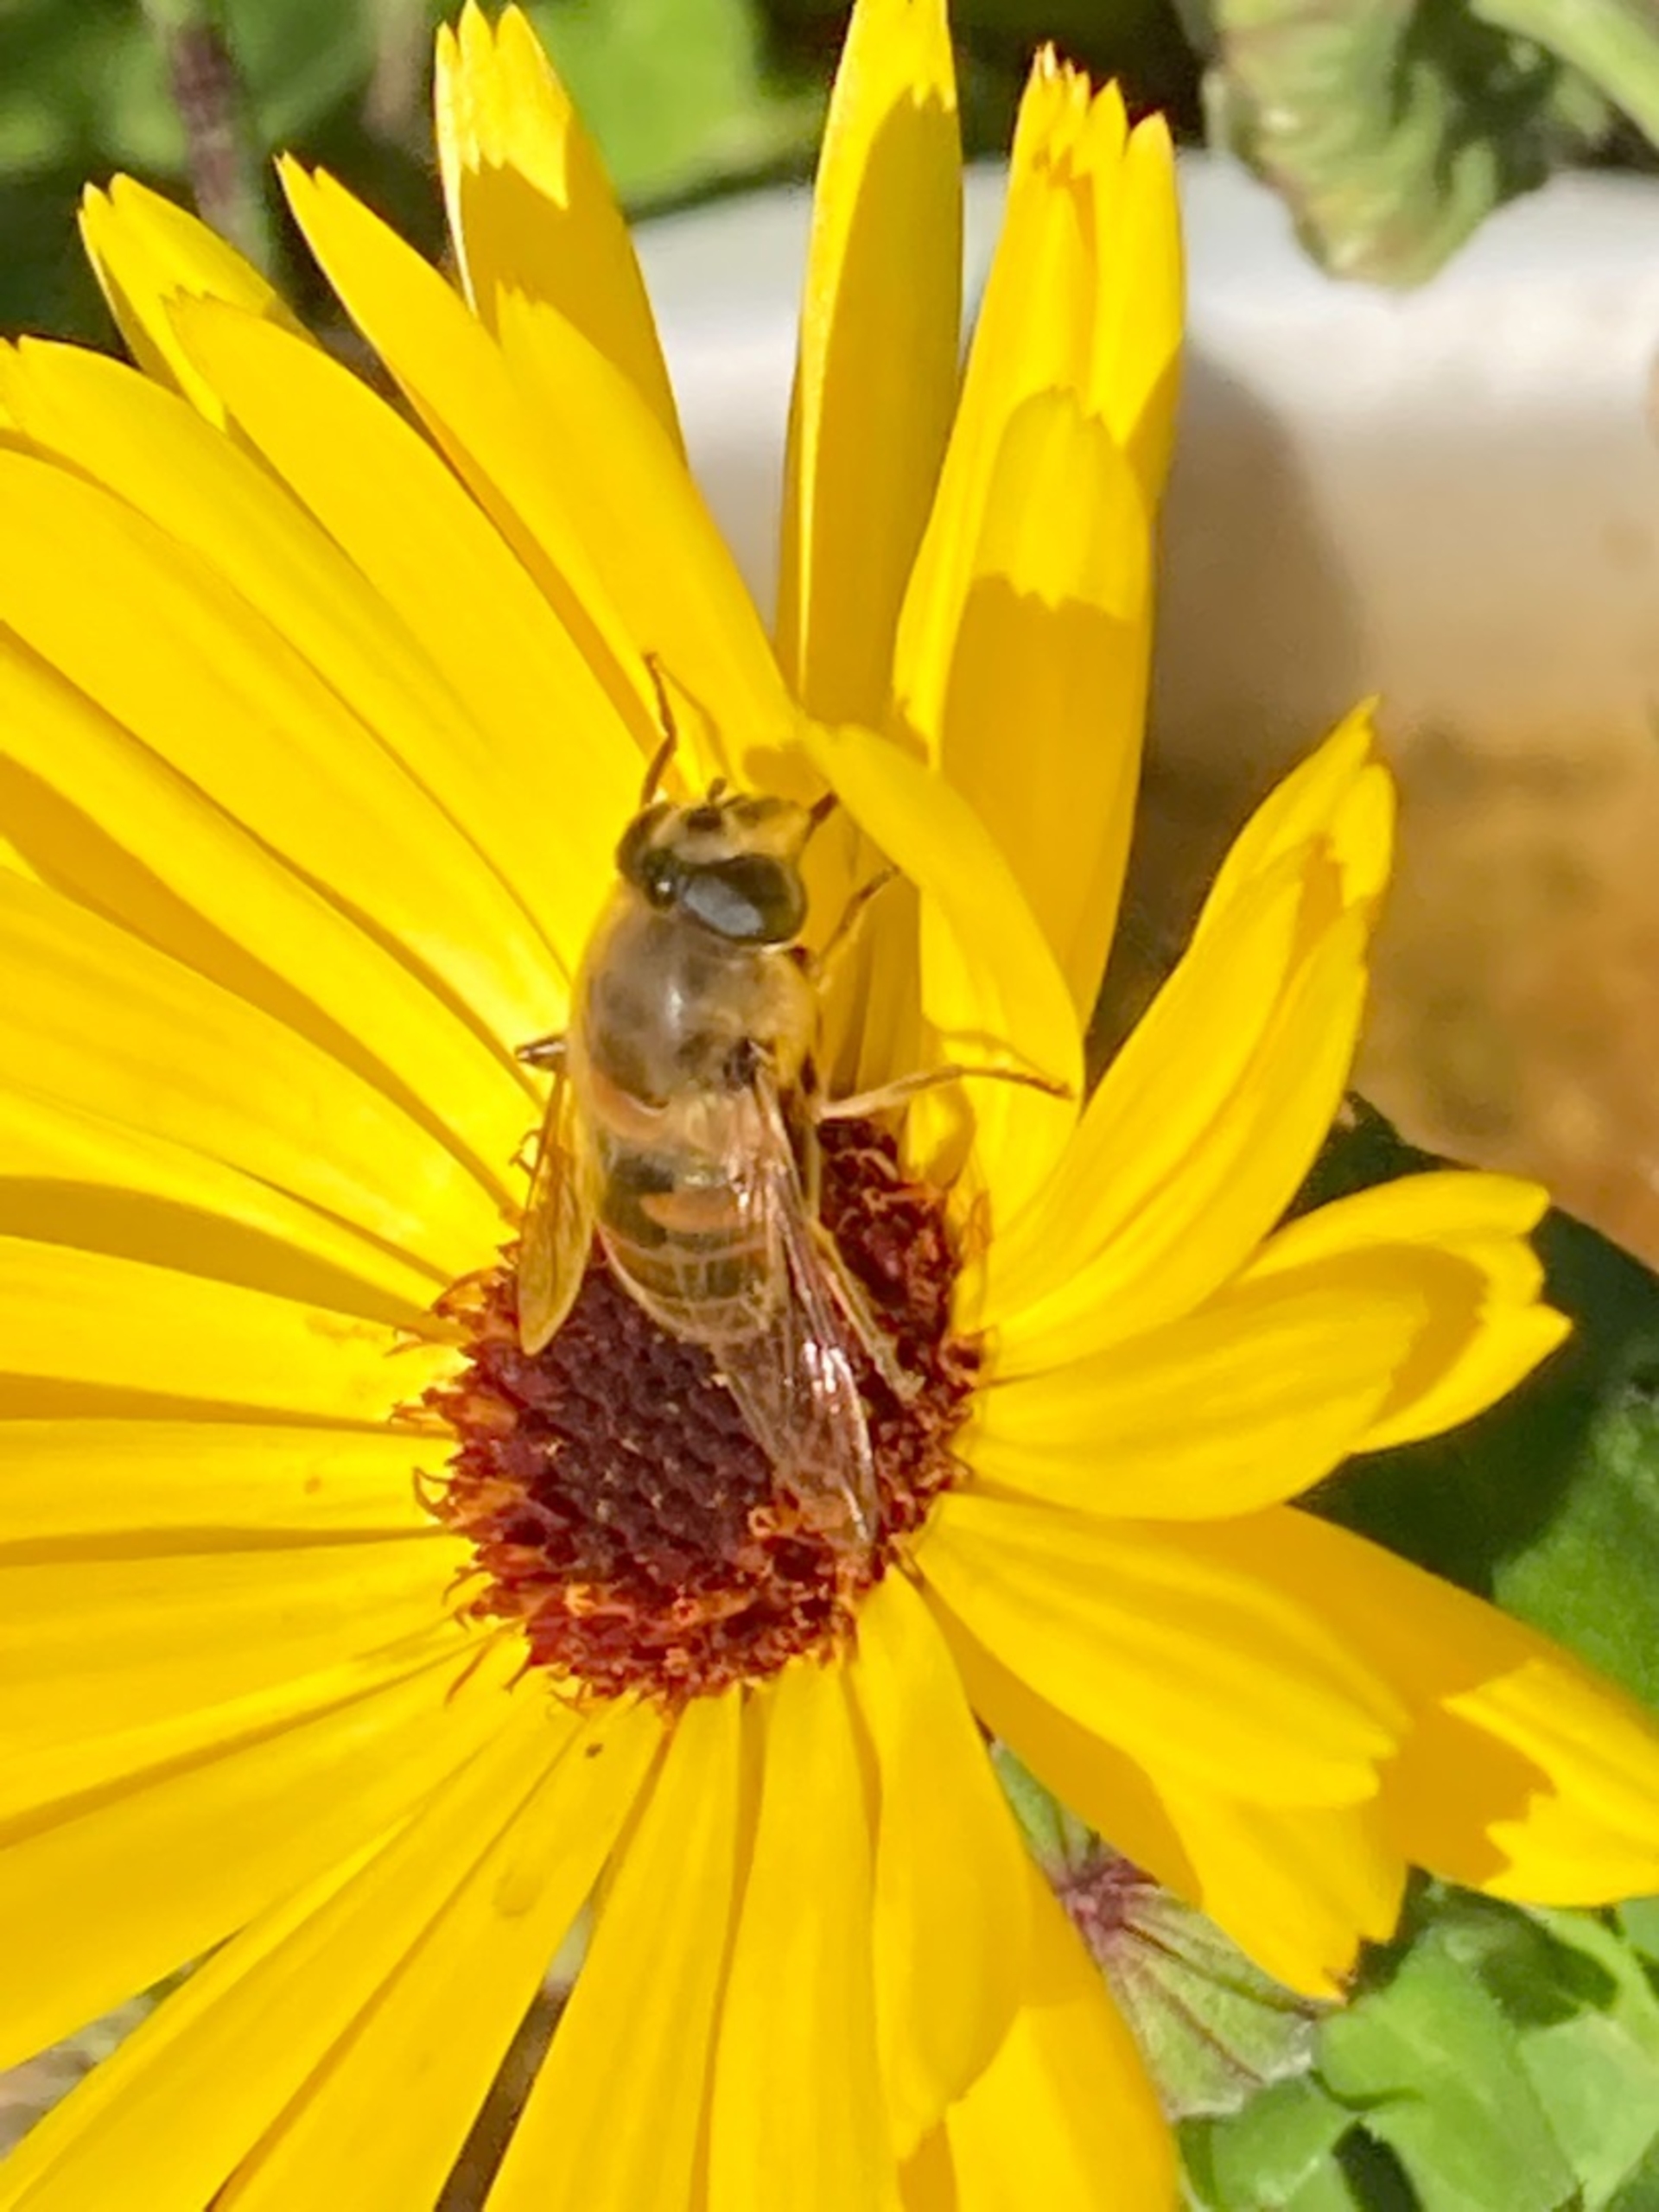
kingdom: Animalia
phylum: Arthropoda
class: Insecta
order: Diptera
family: Syrphidae
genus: Eristalis
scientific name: Eristalis tenax
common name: Droneflue
